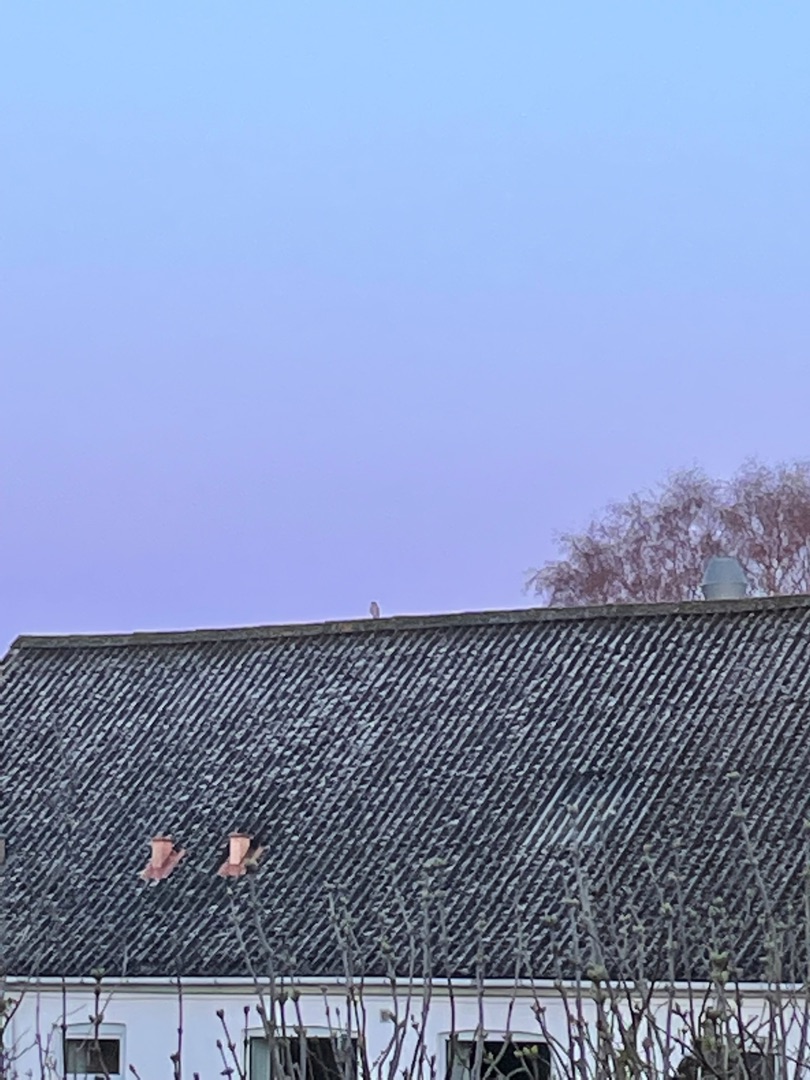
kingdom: Animalia
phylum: Chordata
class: Aves
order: Accipitriformes
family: Accipitridae
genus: Accipiter
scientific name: Accipiter nisus
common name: Spurvehøg
